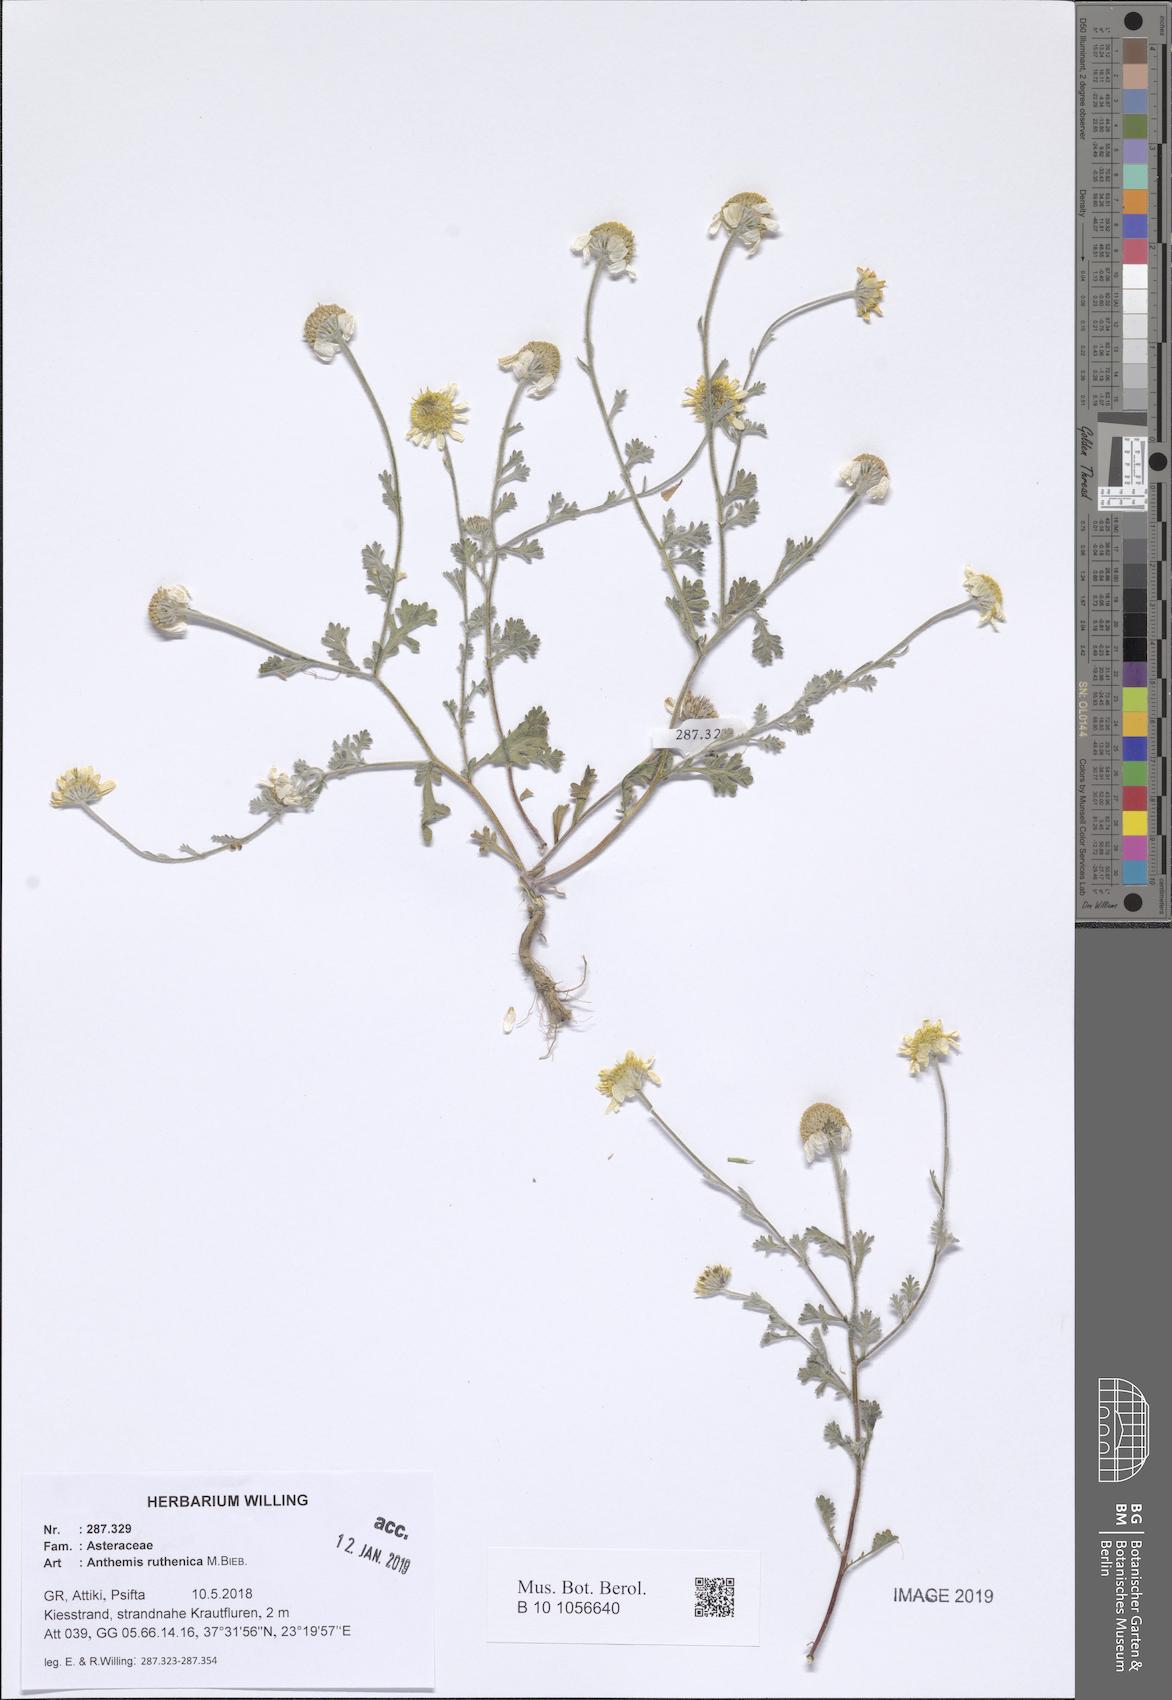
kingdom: Plantae
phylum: Tracheophyta
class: Magnoliopsida
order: Asterales
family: Asteraceae
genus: Anthemis
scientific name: Anthemis ruthenica
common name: Eastern chamomile
